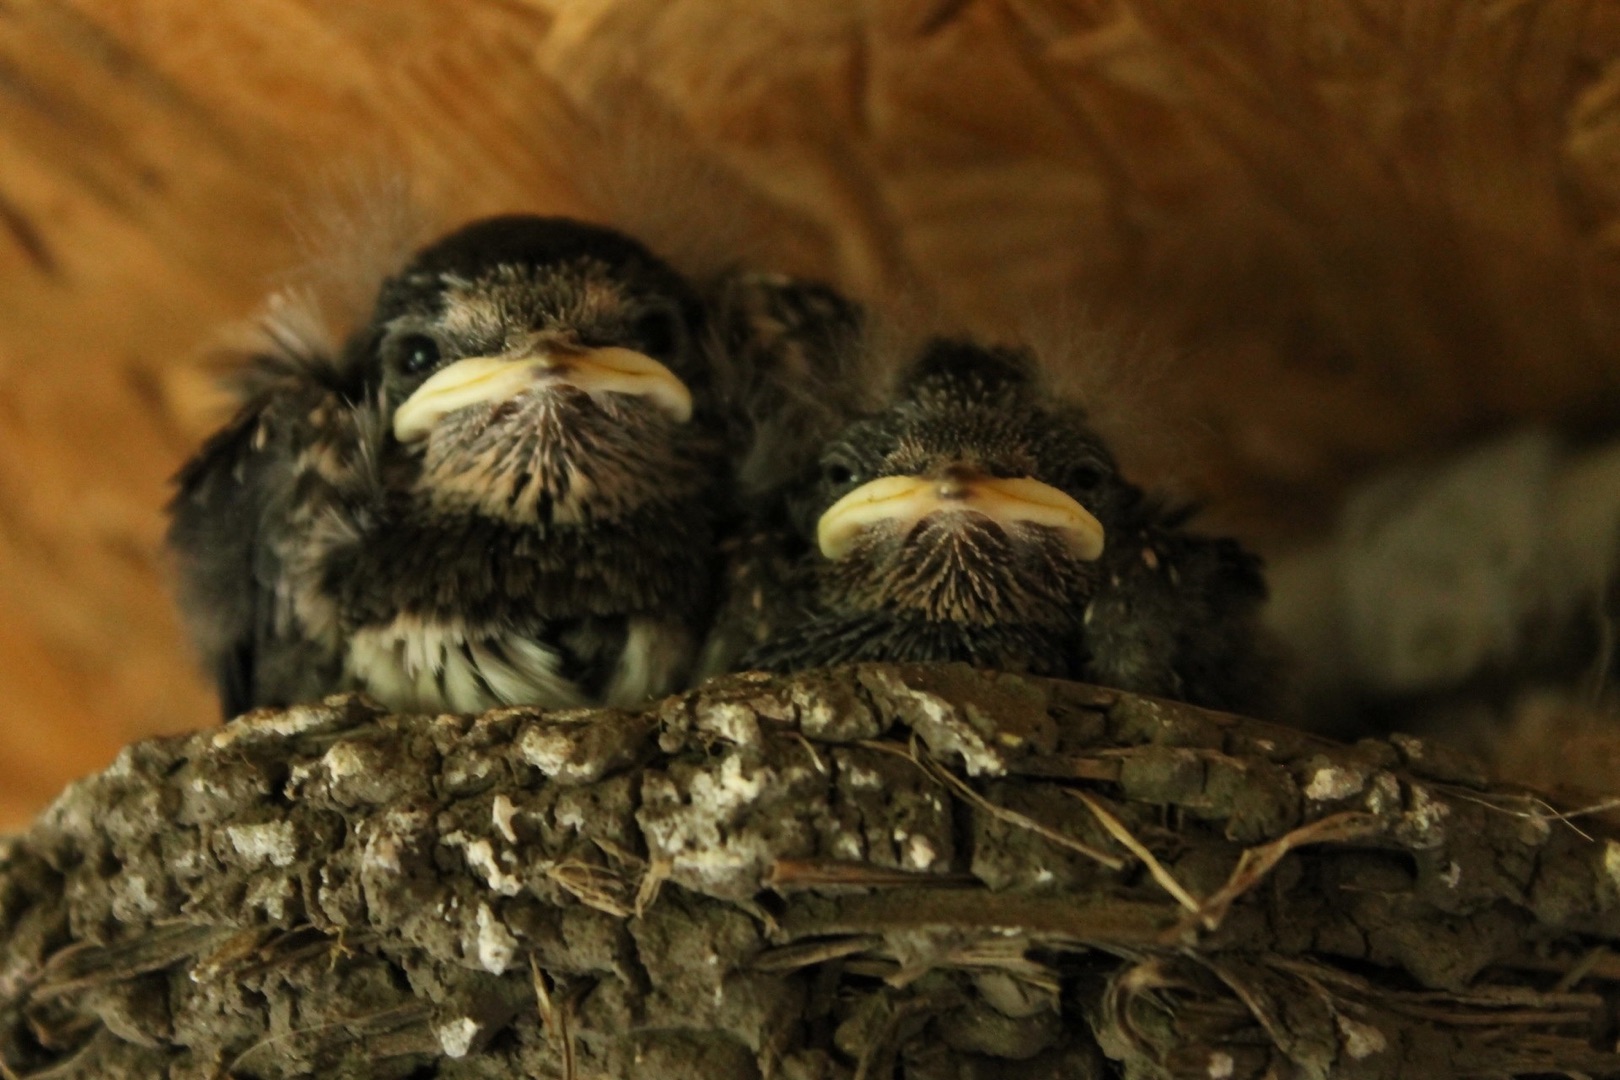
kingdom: Animalia
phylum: Chordata
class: Aves
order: Passeriformes
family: Hirundinidae
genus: Hirundo
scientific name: Hirundo rustica
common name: Landsvale
